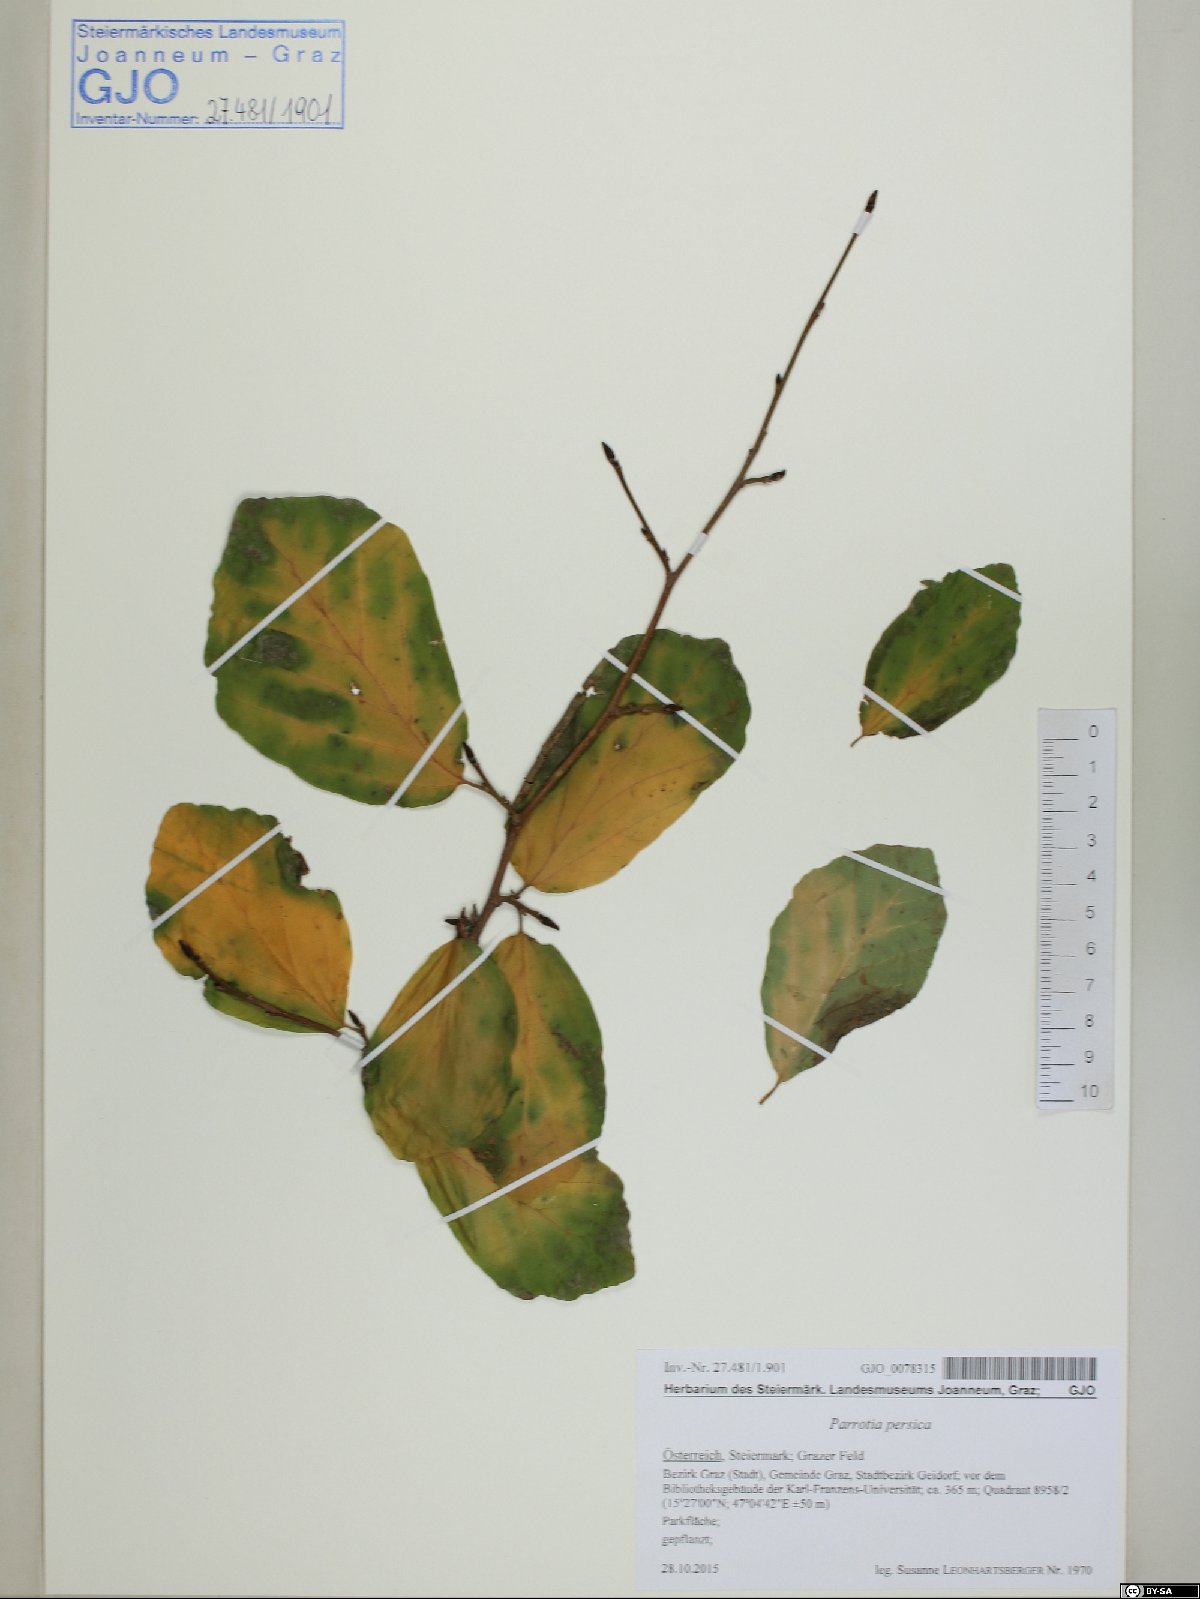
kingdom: Plantae
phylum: Tracheophyta
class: Magnoliopsida
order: Saxifragales
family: Hamamelidaceae
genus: Parrotia
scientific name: Parrotia persica
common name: Persian ironwood
